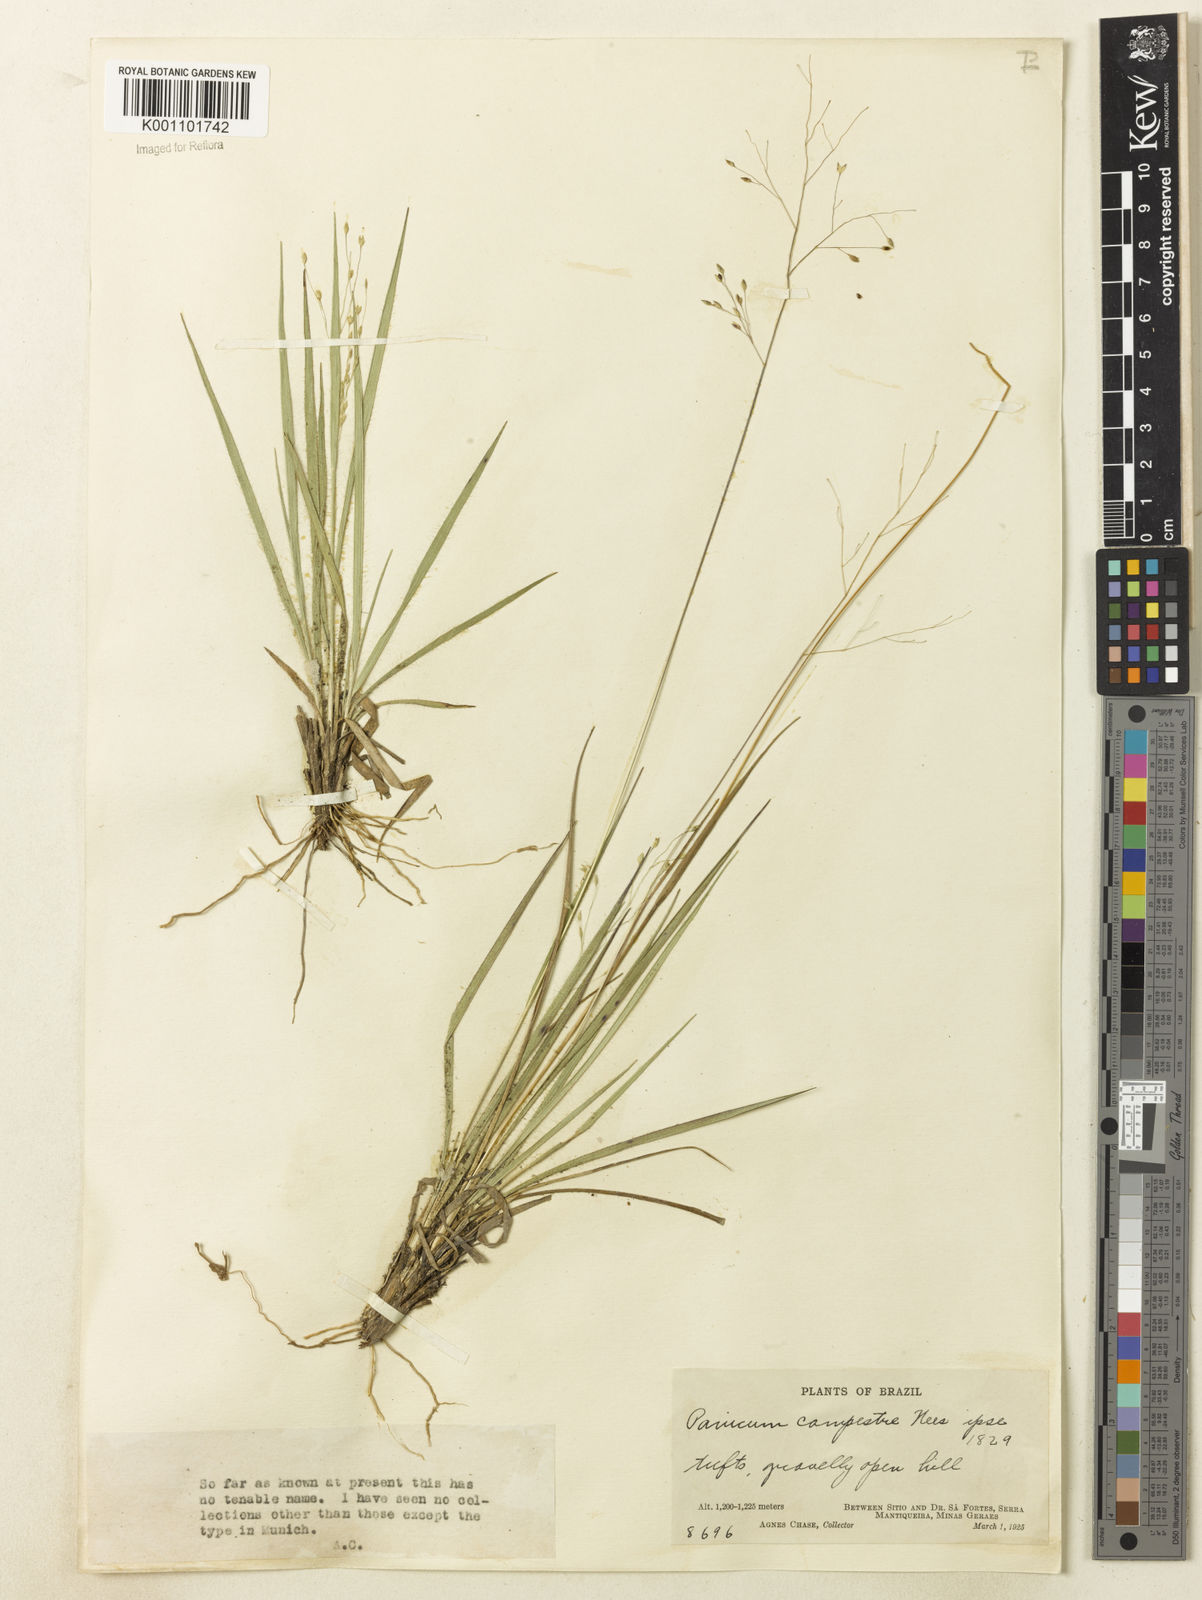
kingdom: Plantae
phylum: Tracheophyta
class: Liliopsida
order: Poales
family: Poaceae
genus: Panicum
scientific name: Panicum peladoense
